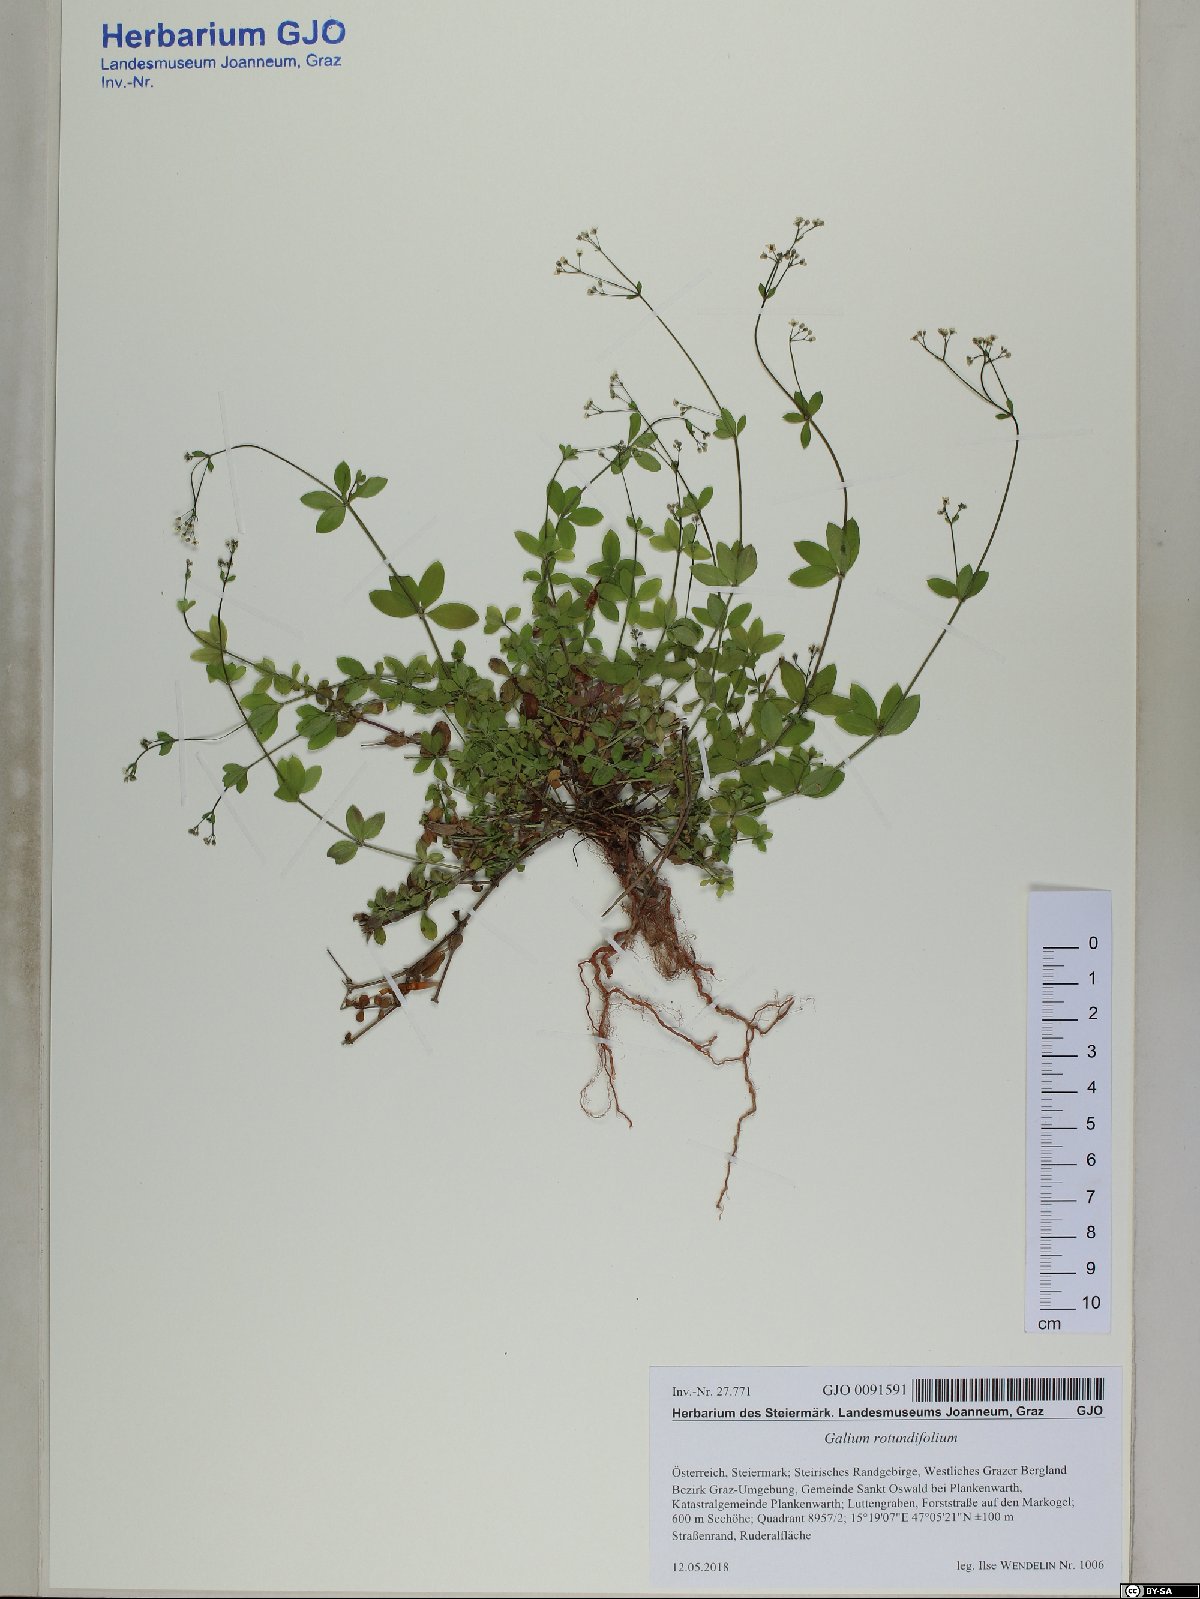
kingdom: Plantae
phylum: Tracheophyta
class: Magnoliopsida
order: Gentianales
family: Rubiaceae
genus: Galium
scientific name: Galium rotundifolium
